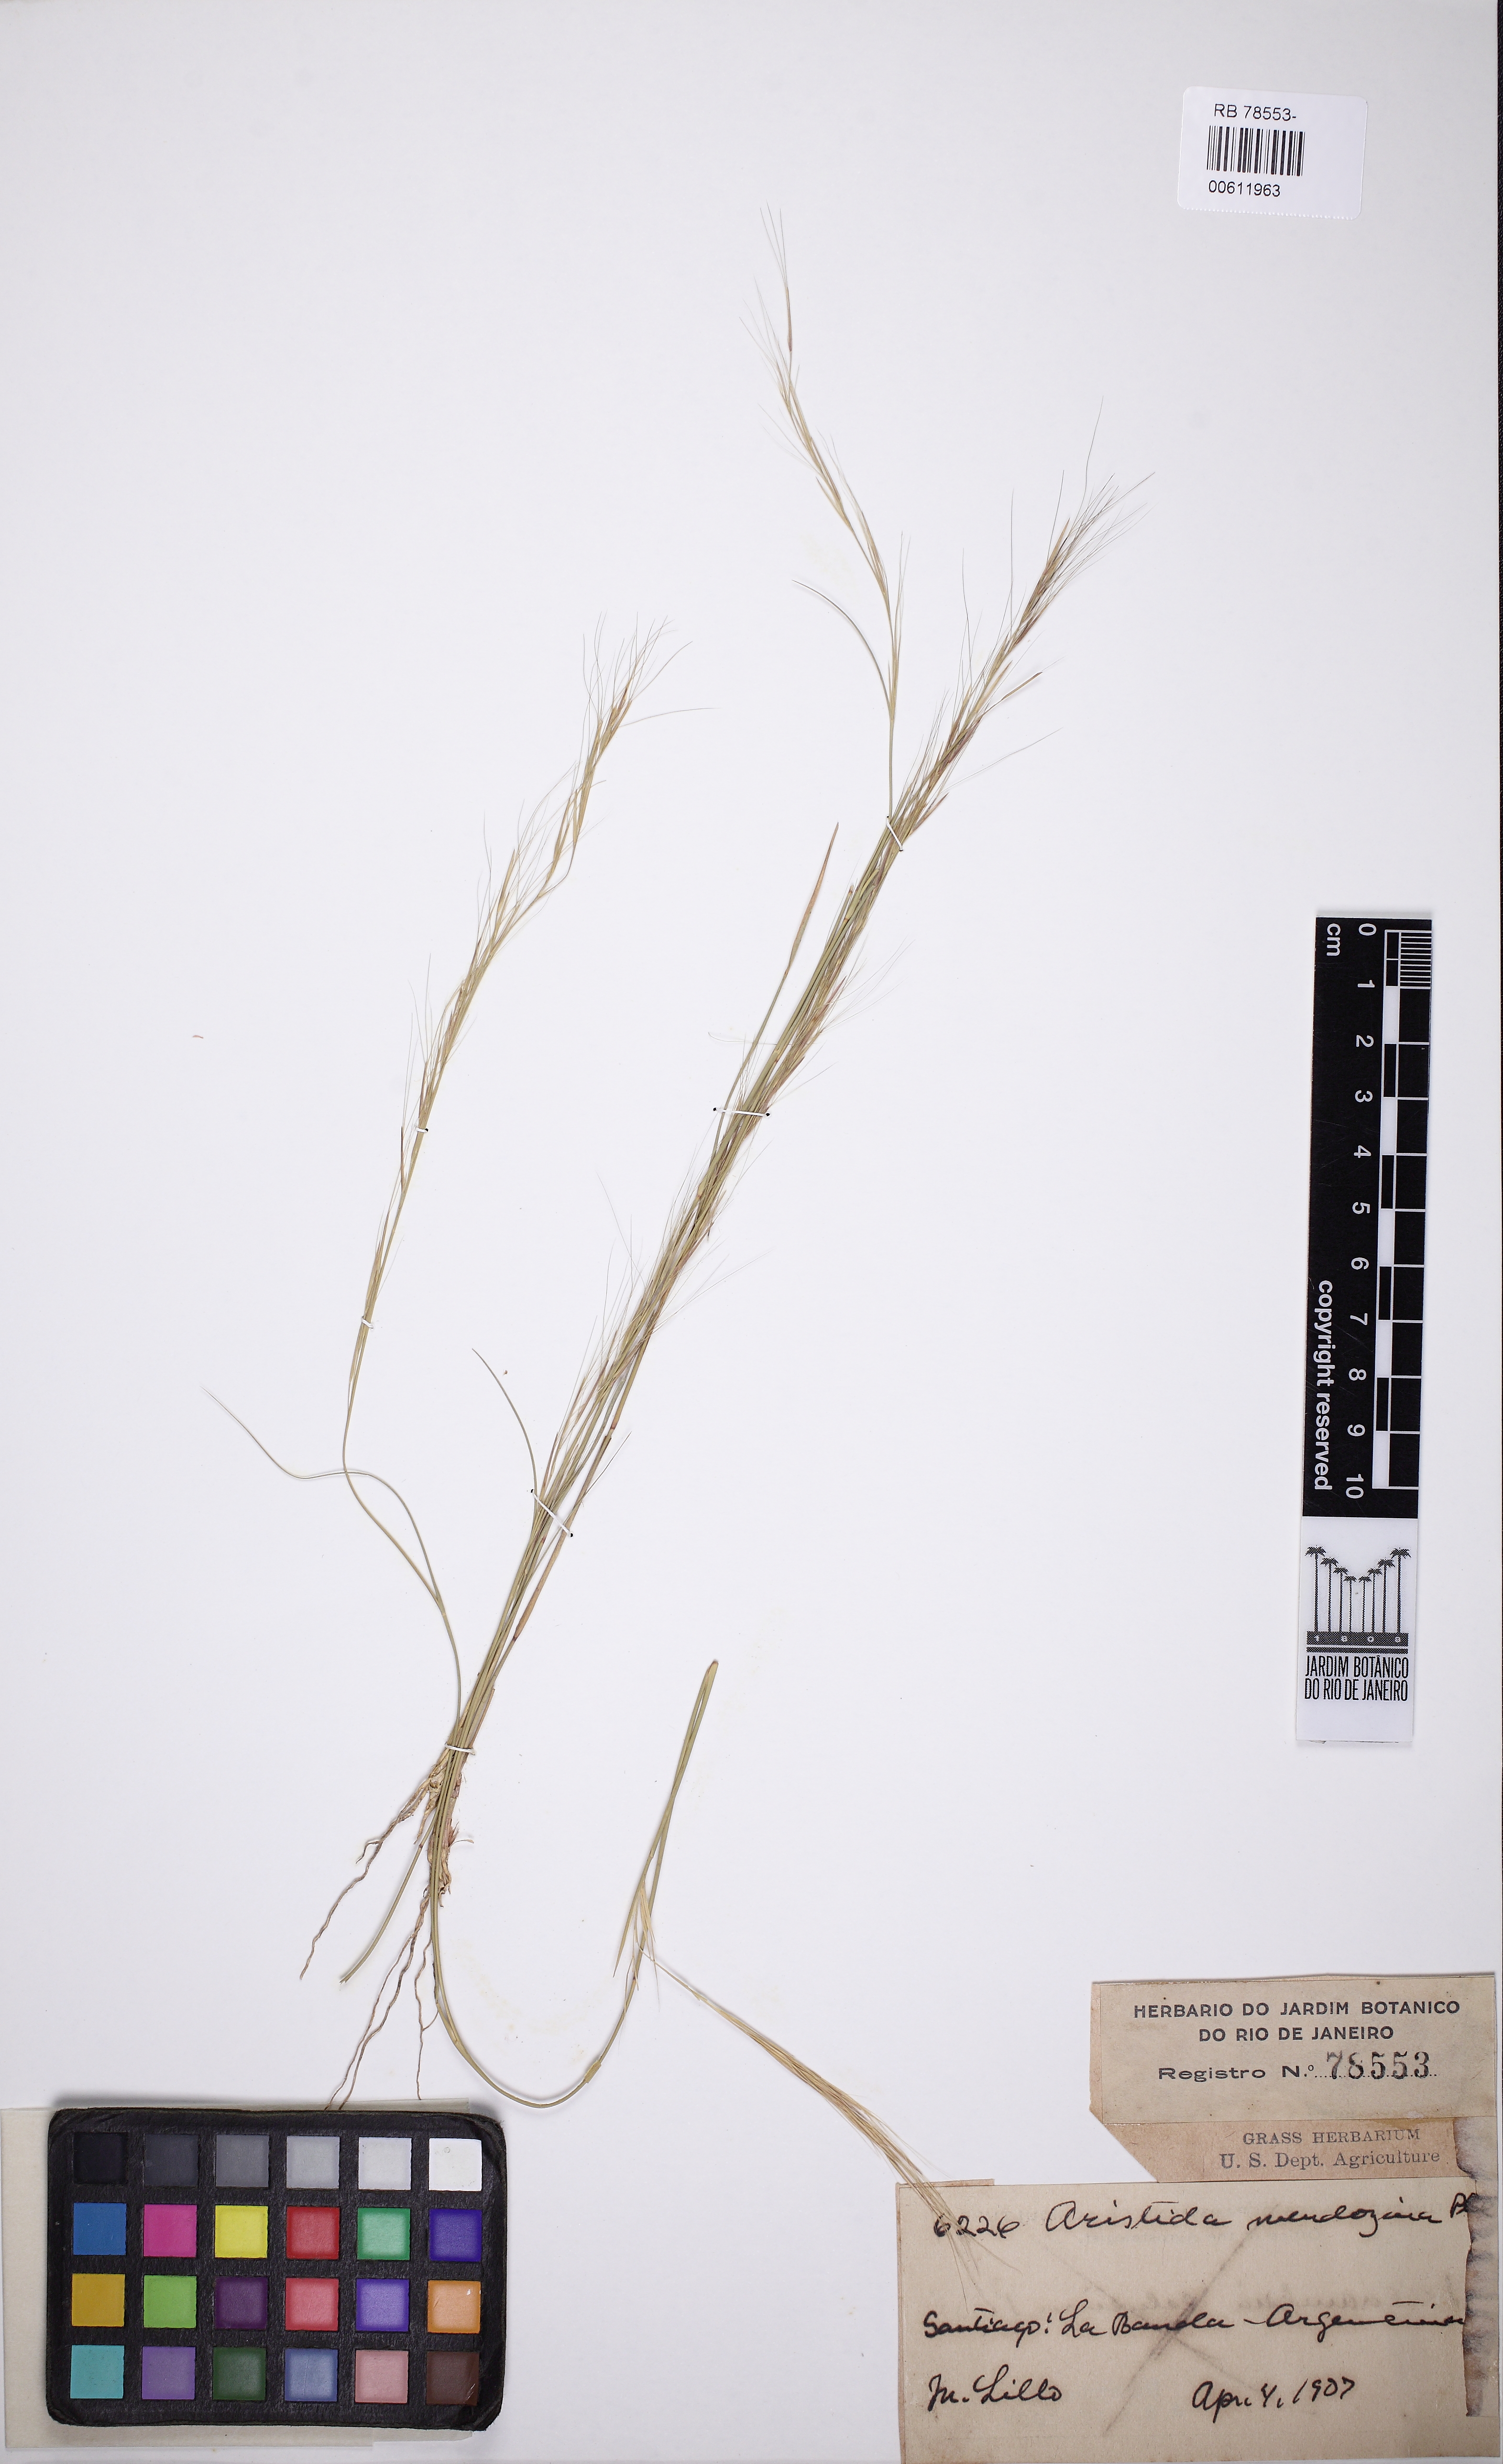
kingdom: Plantae
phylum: Tracheophyta
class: Liliopsida
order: Poales
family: Poaceae
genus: Aristida
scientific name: Aristida mendocina
